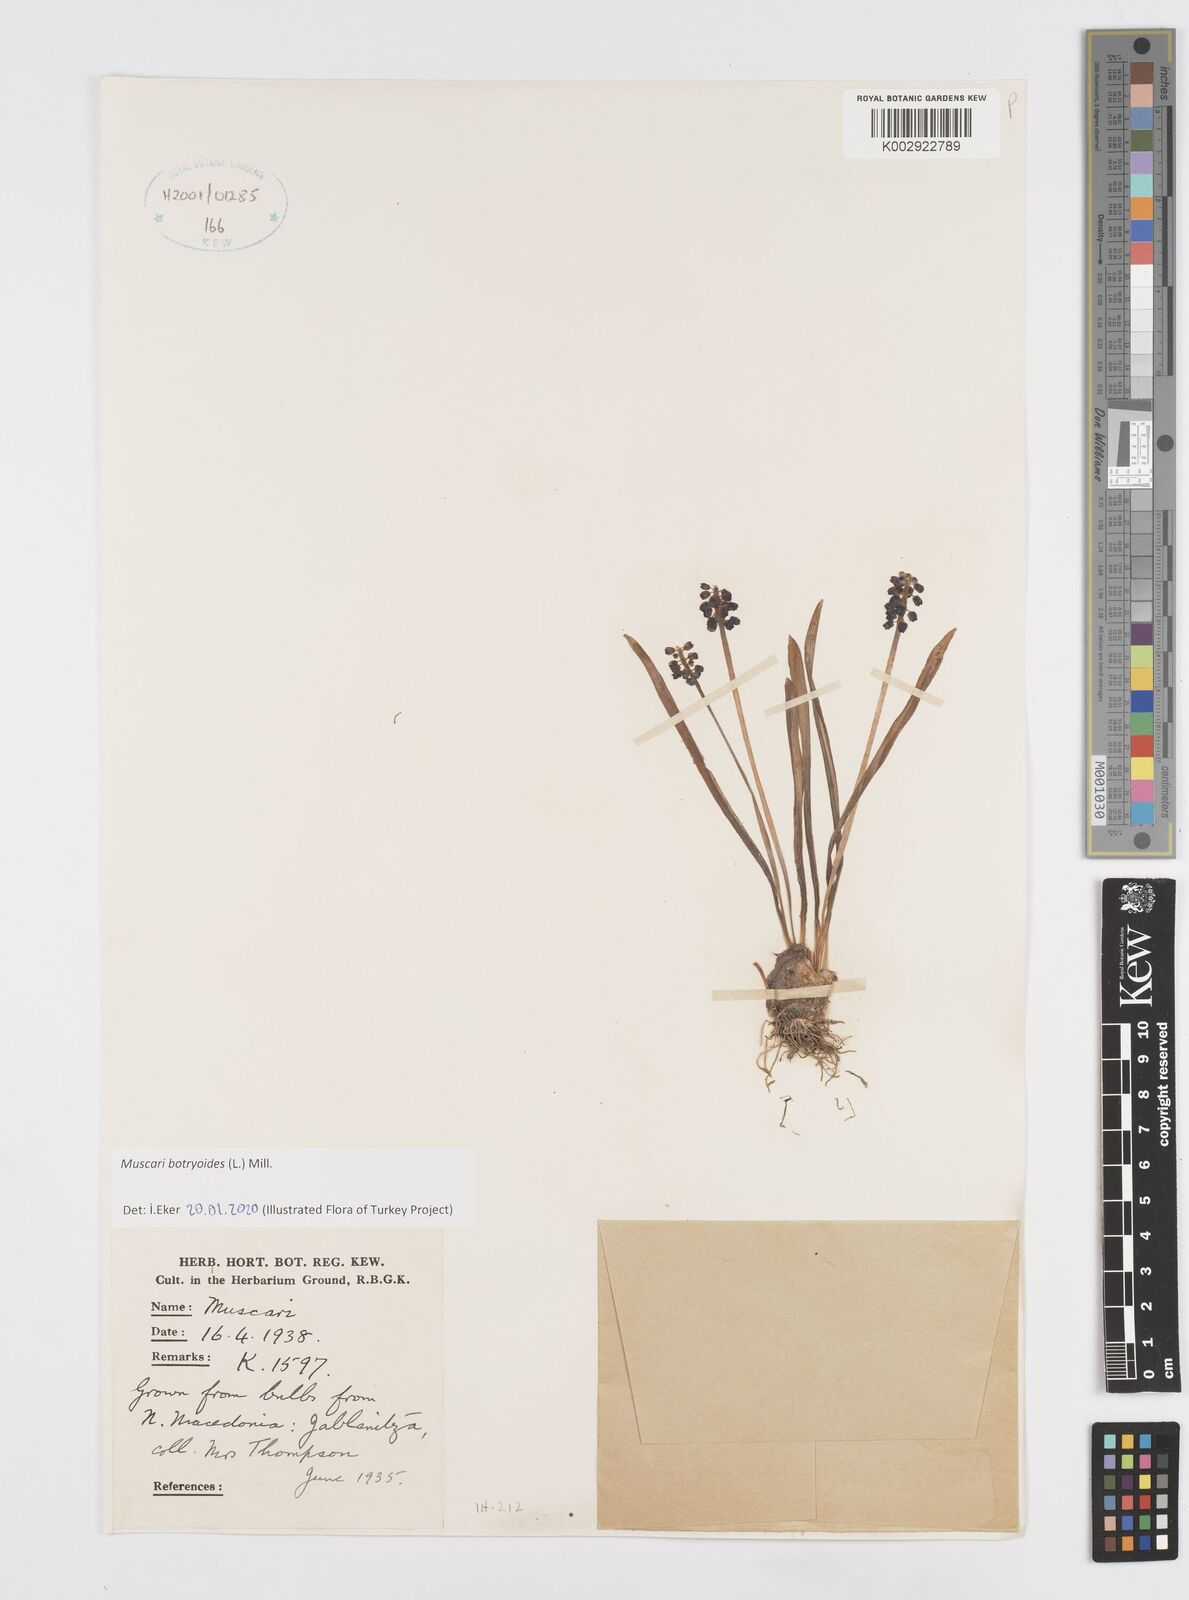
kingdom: Plantae
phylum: Tracheophyta
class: Liliopsida
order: Asparagales
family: Asparagaceae
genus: Muscari
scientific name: Muscari botryoides
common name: Compact grape-hyacinth
